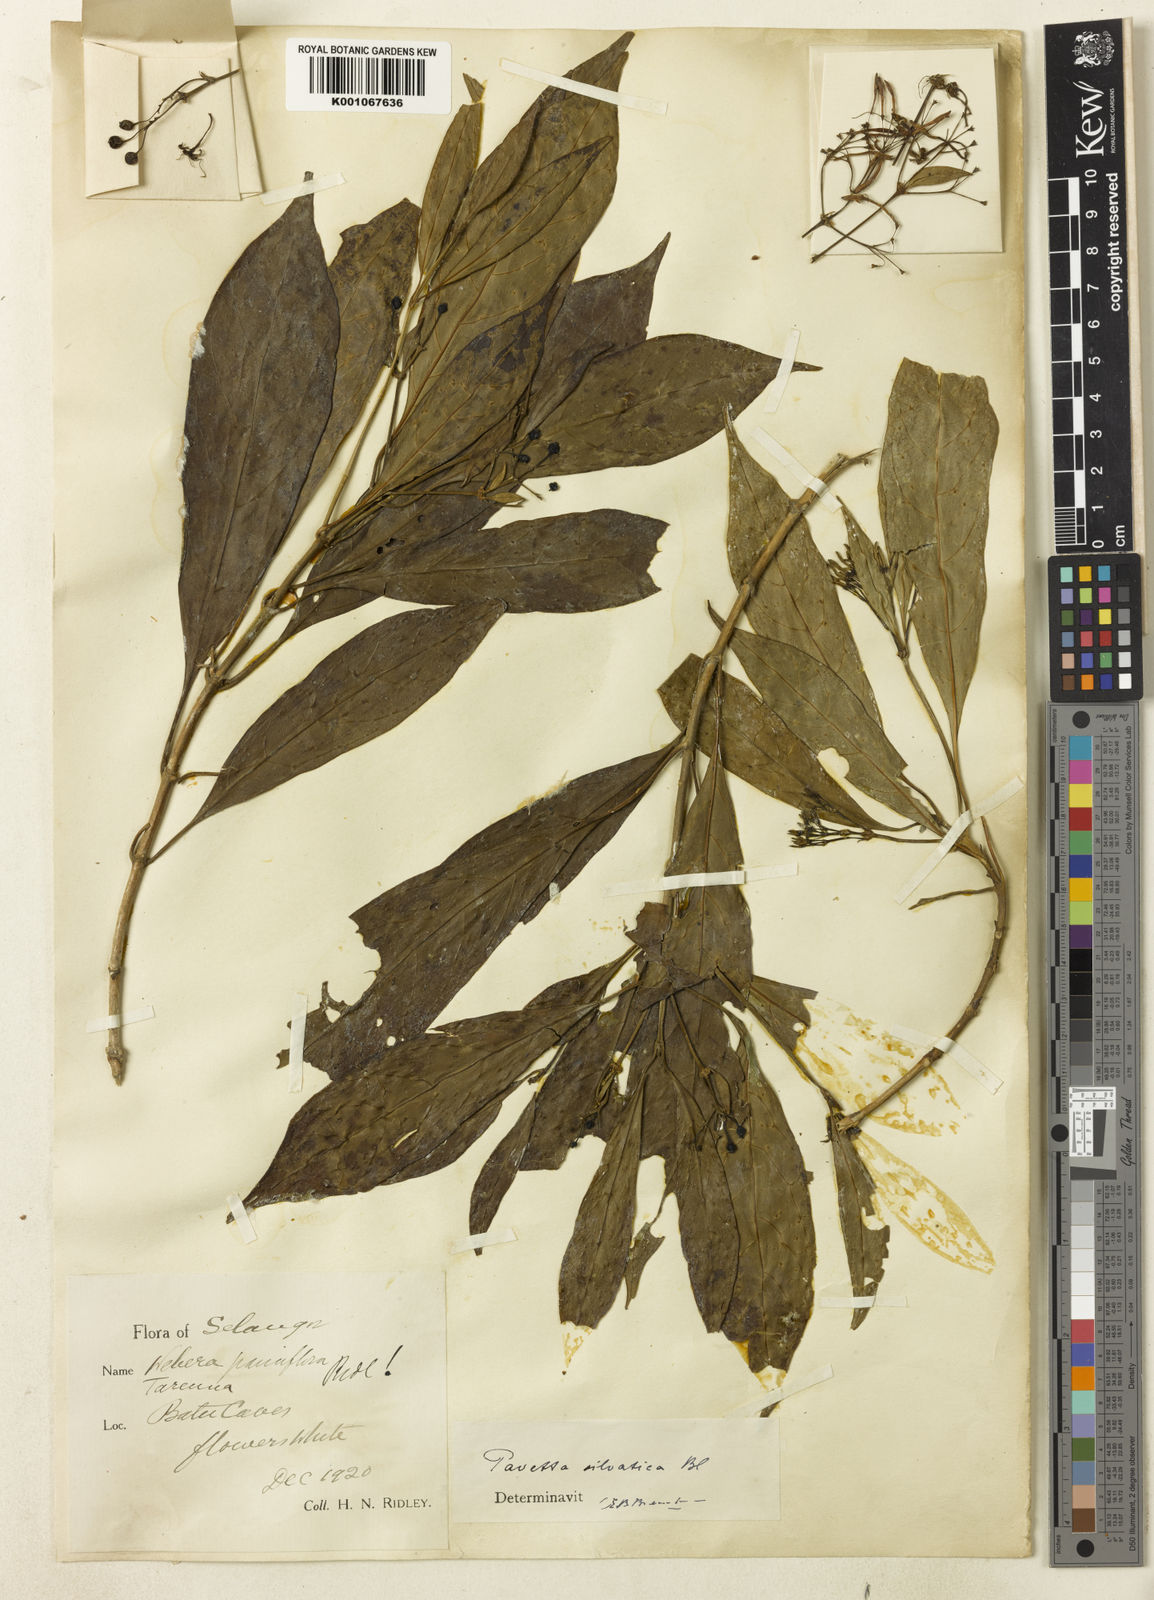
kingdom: Plantae
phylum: Tracheophyta
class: Magnoliopsida
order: Gentianales
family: Rubiaceae
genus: Pavetta
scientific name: Pavetta sylvatica
